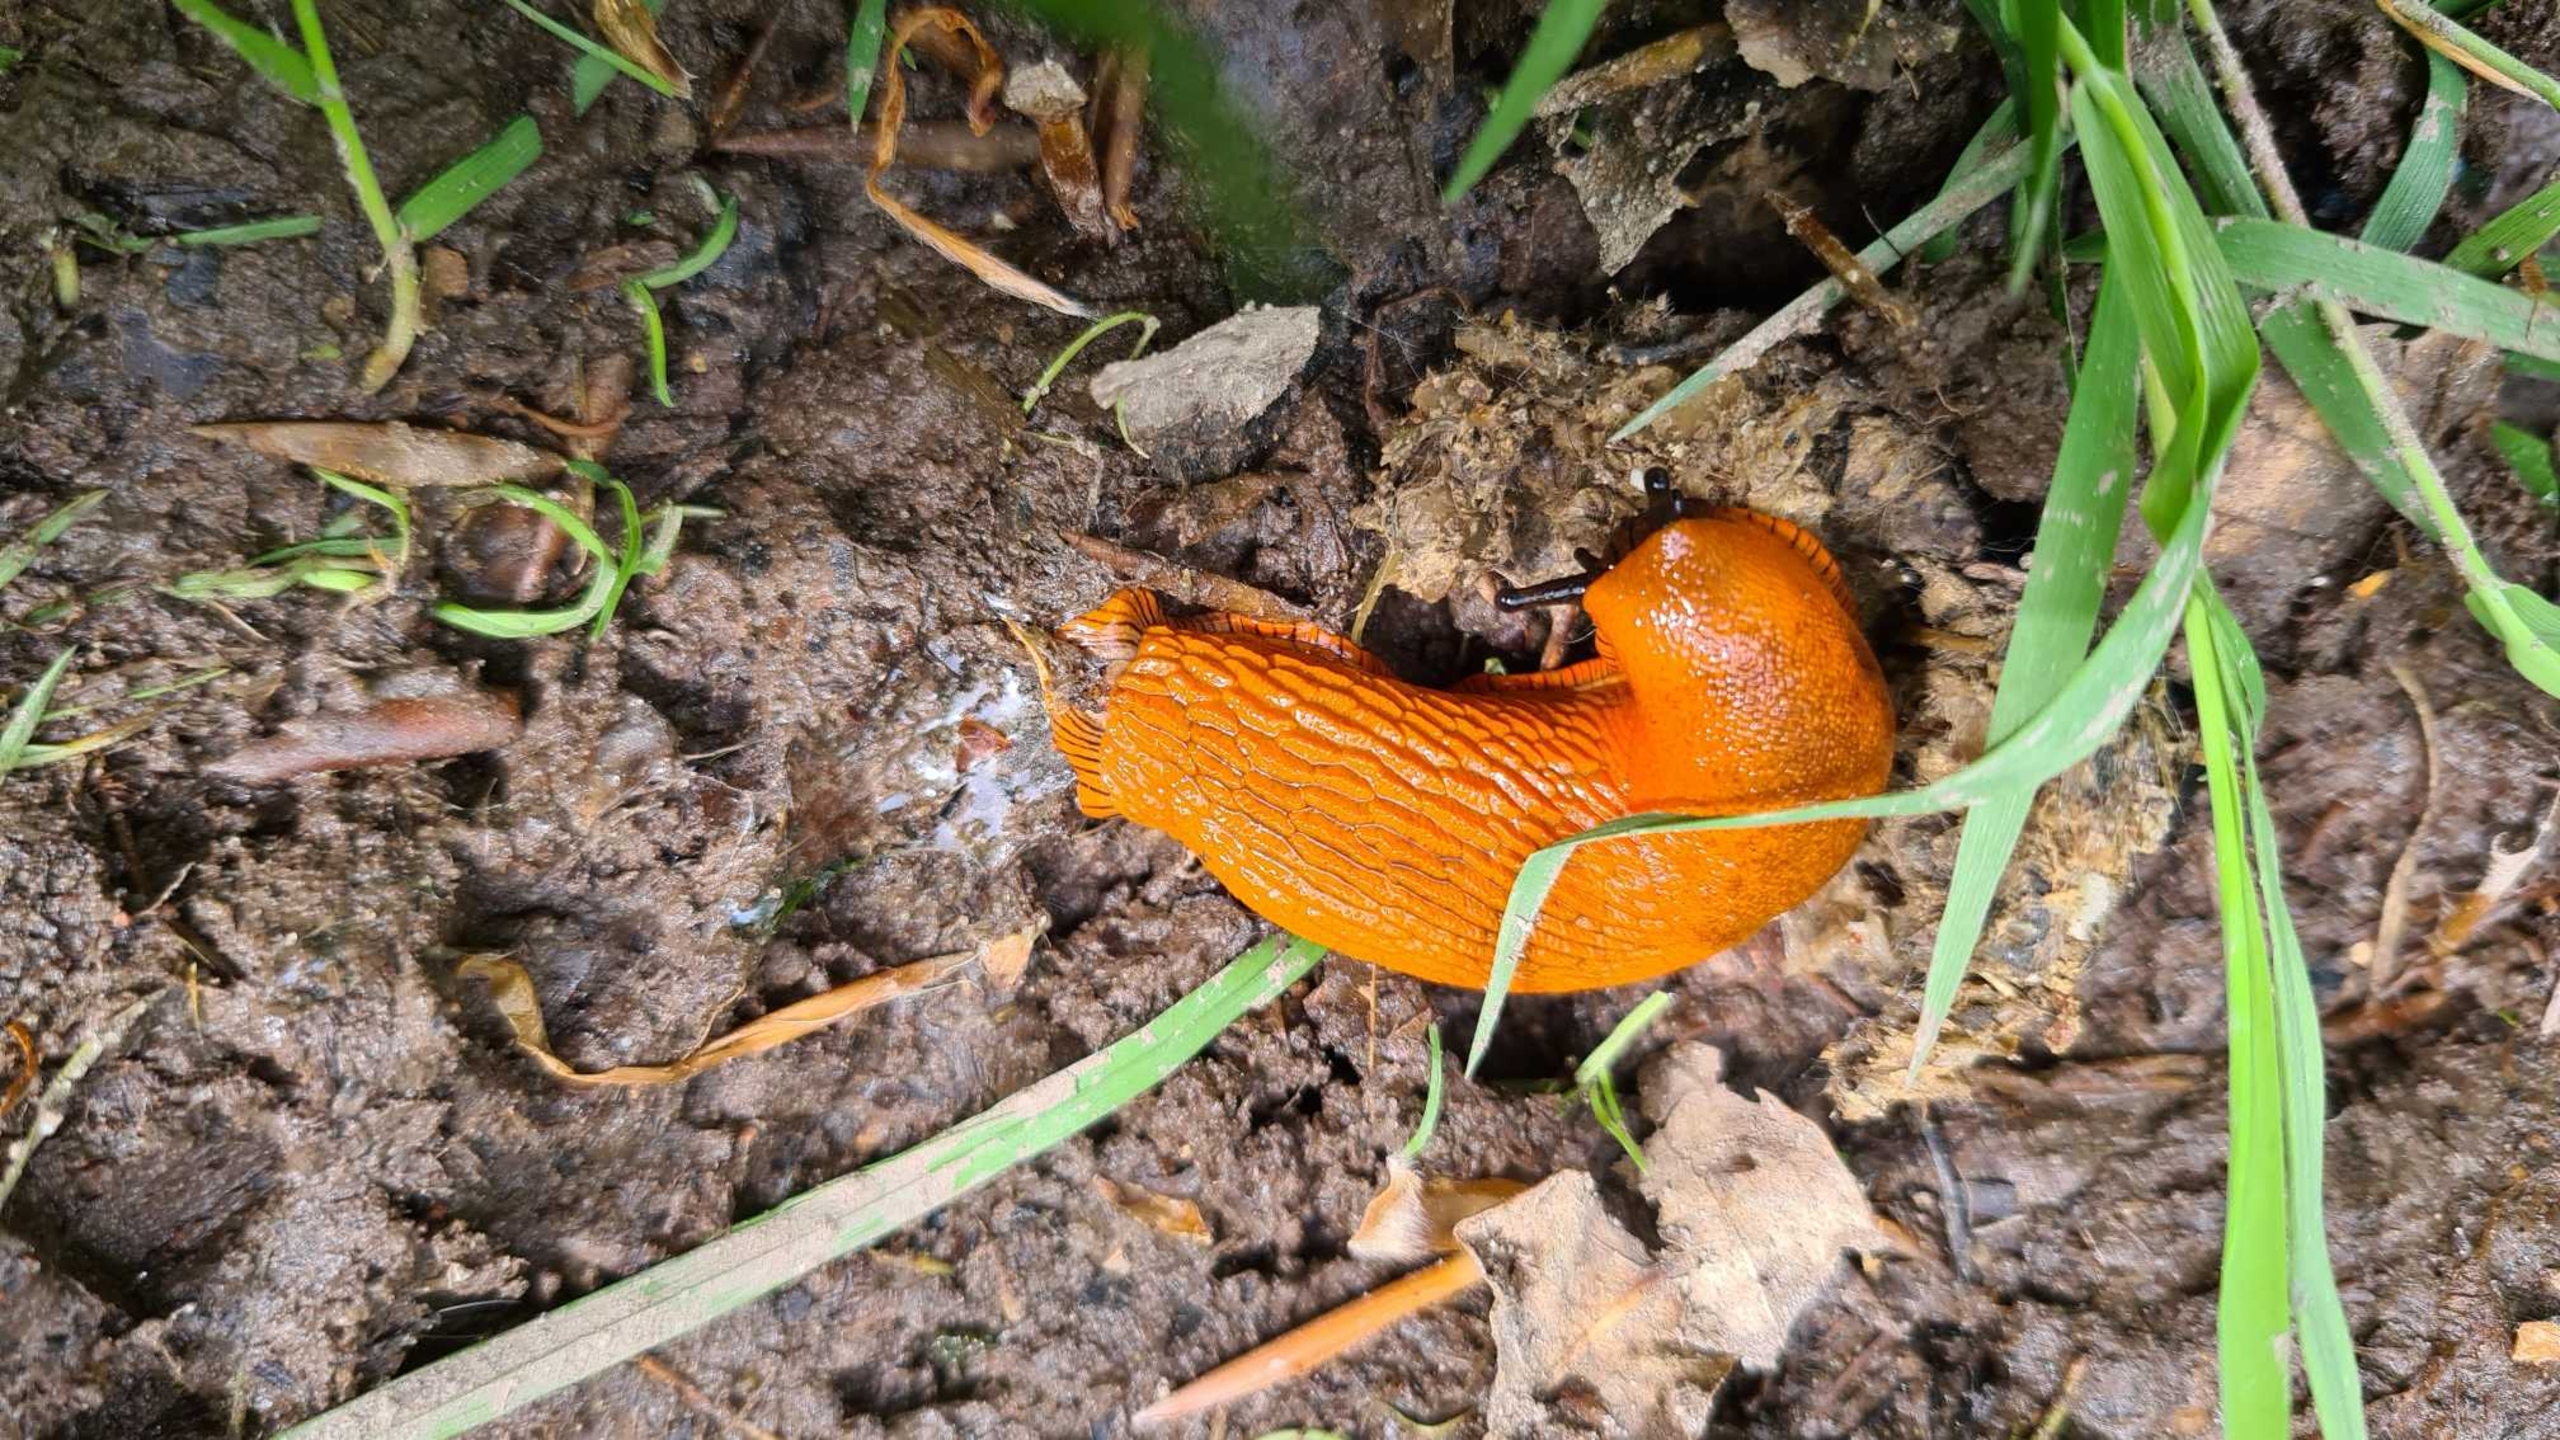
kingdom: Animalia
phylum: Mollusca
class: Gastropoda
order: Stylommatophora
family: Arionidae
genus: Arion
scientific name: Arion rufus
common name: Rød skovsnegl
